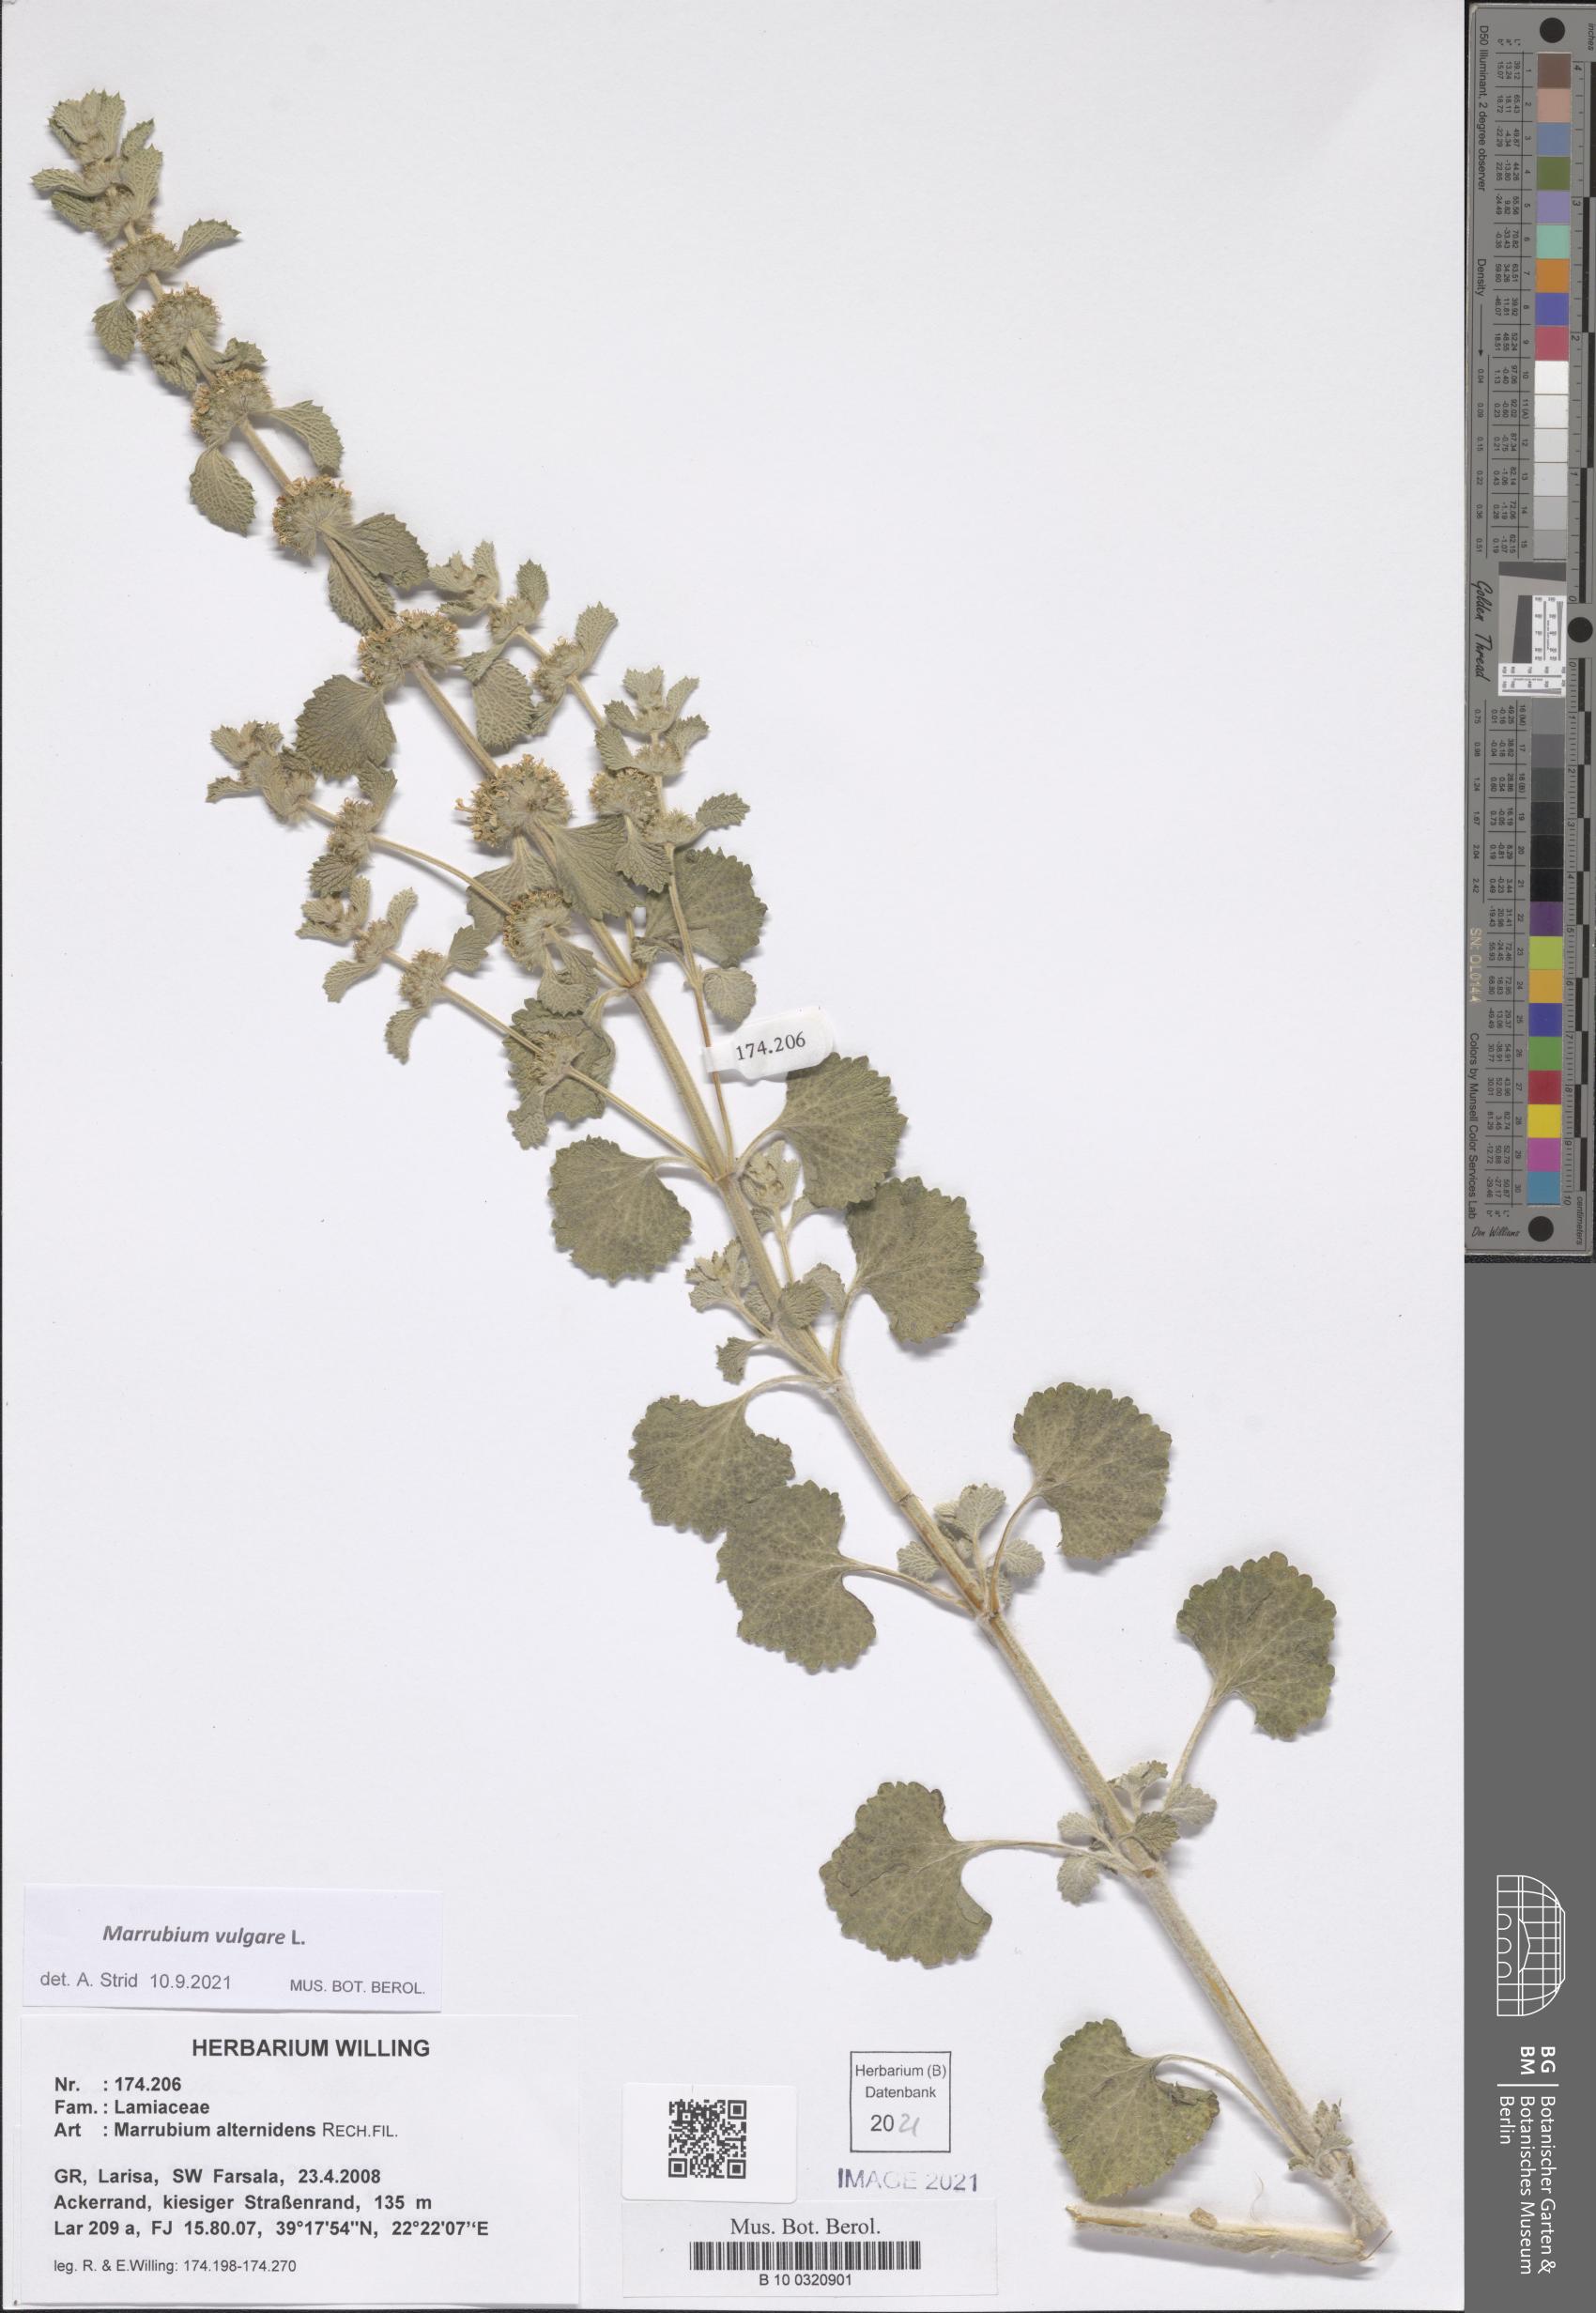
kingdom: Plantae
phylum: Tracheophyta
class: Magnoliopsida
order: Lamiales
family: Lamiaceae
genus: Marrubium
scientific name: Marrubium vulgare
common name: Horehound
